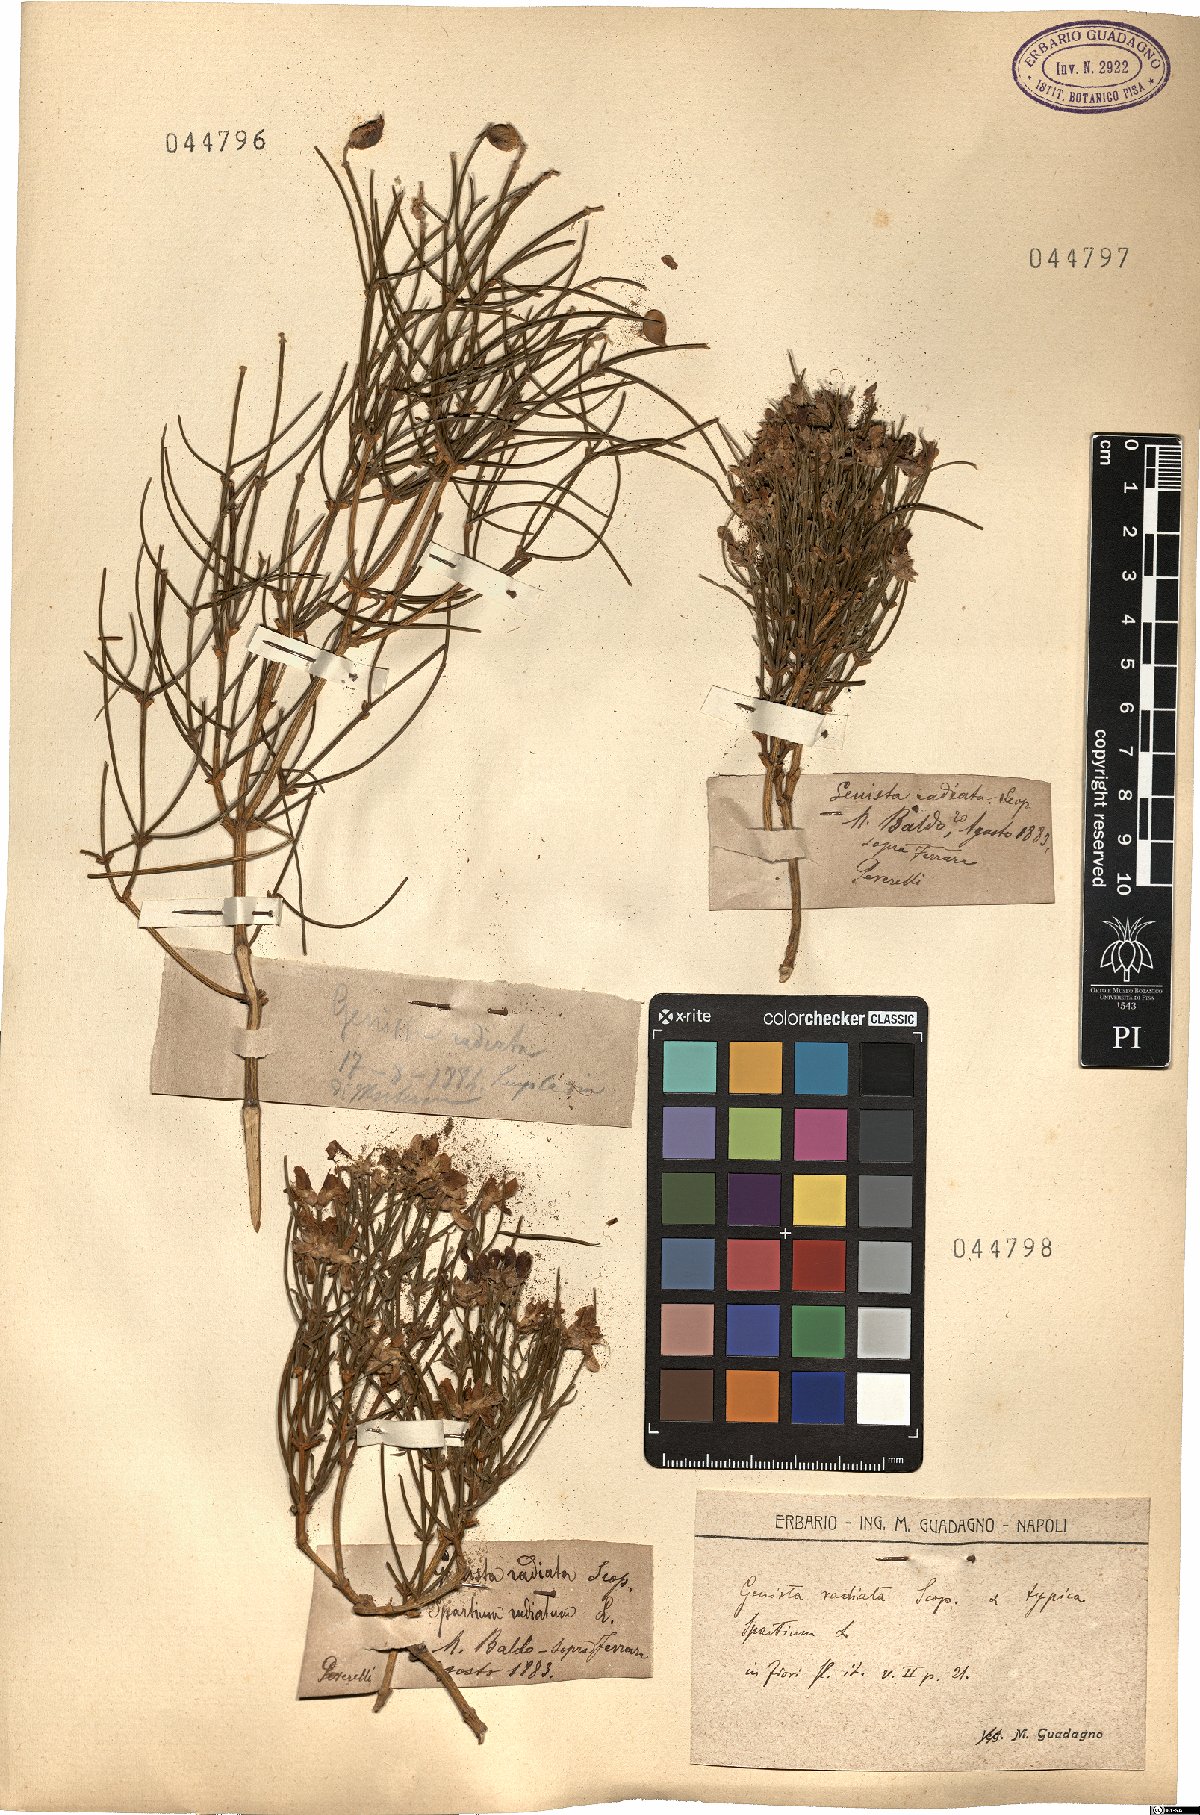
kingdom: Plantae
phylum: Tracheophyta
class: Magnoliopsida
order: Fabales
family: Fabaceae
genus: Genista
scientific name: Genista radiata
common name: Southern greenweed
